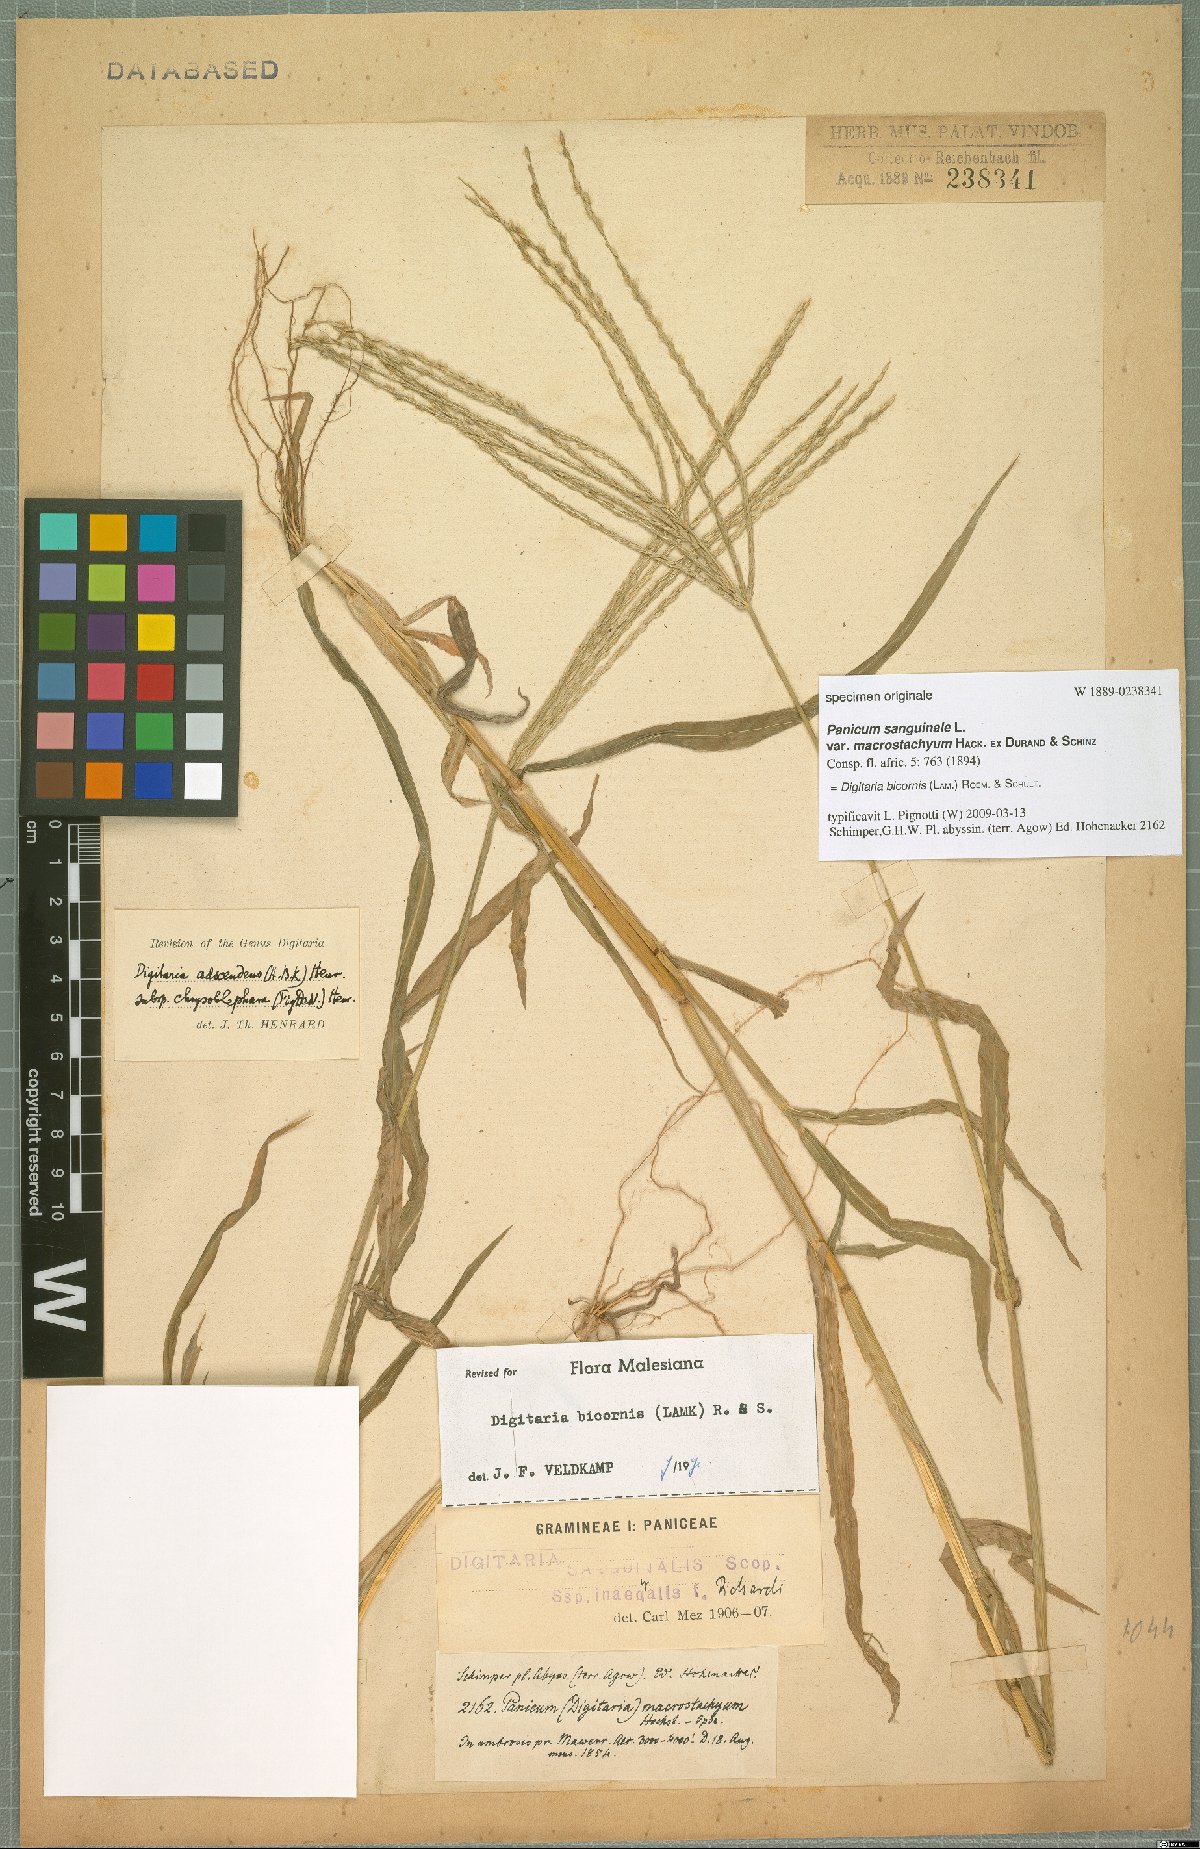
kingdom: Plantae
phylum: Tracheophyta
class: Liliopsida
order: Poales
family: Poaceae
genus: Digitaria
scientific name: Digitaria bicornis
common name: Asian crabgrass
